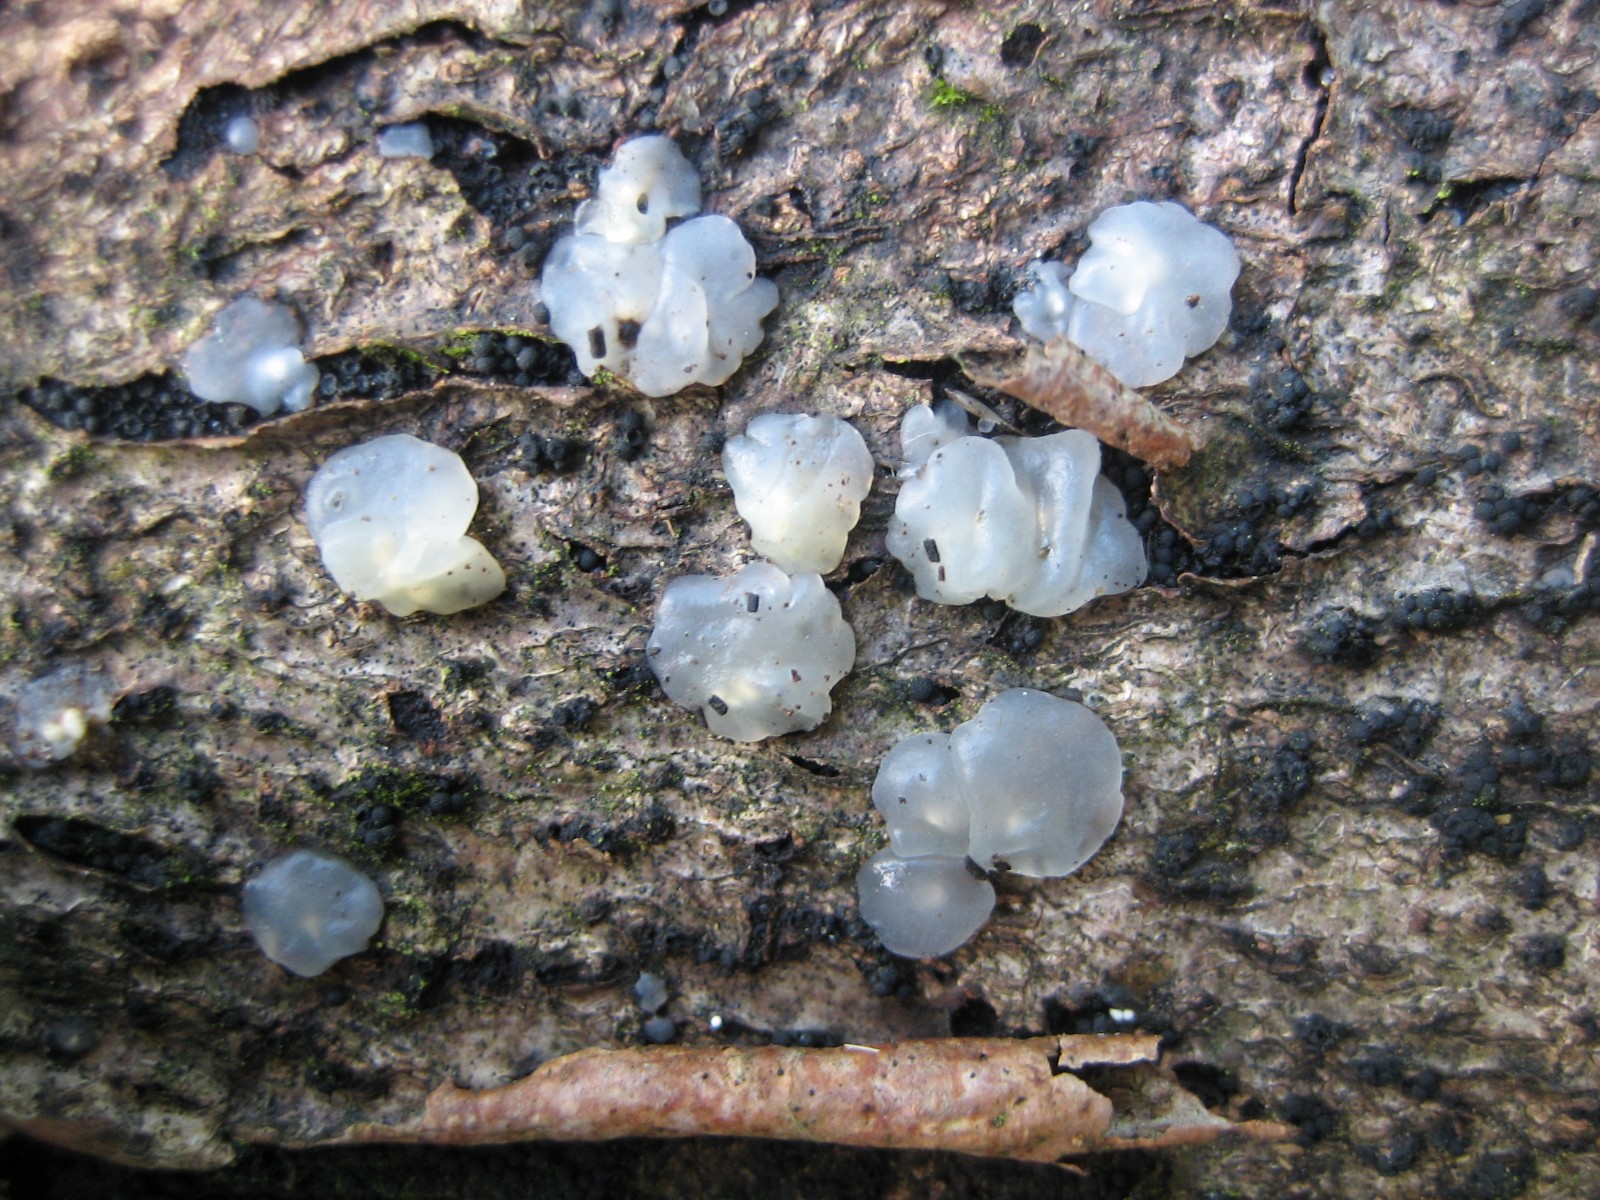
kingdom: Fungi
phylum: Basidiomycota
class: Agaricomycetes
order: Auriculariales
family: Hyaloriaceae
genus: Myxarium
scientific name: Myxarium nucleatum
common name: klar bævretop
